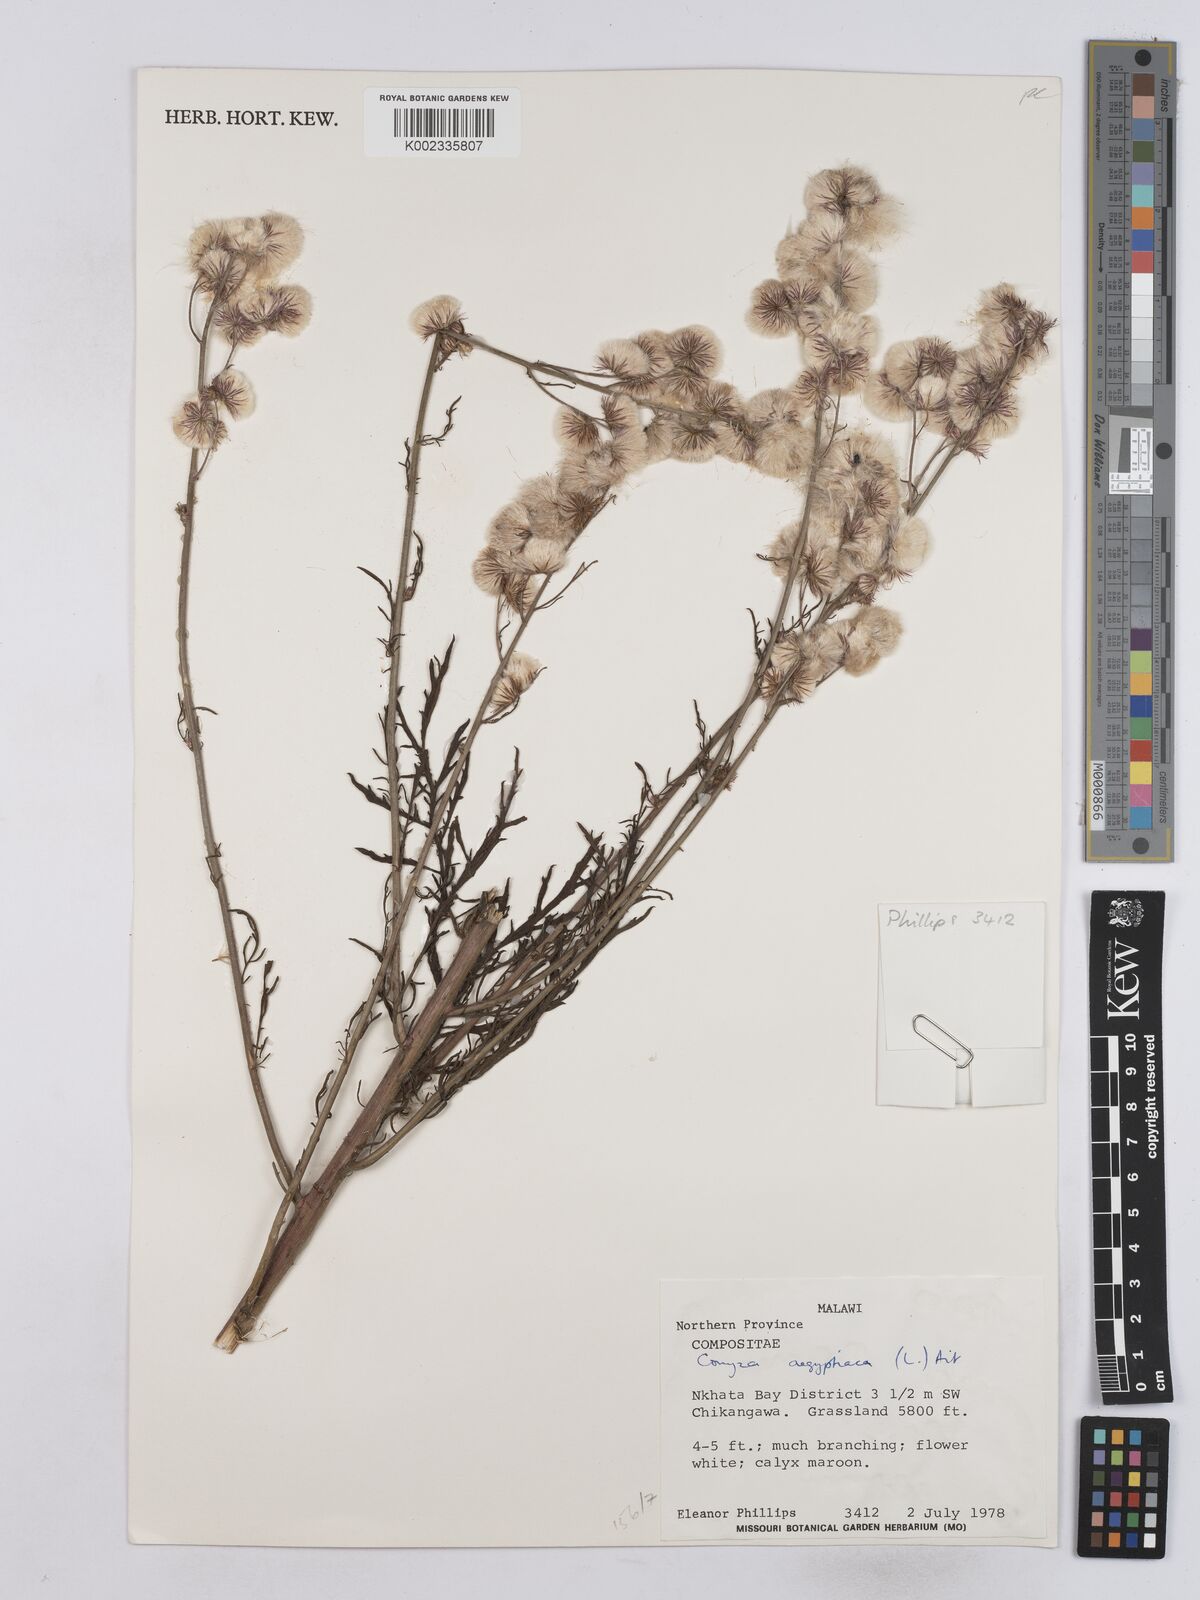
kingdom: Plantae
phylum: Tracheophyta
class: Magnoliopsida
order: Asterales
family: Asteraceae
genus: Nidorella
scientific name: Nidorella aegyptiaca
